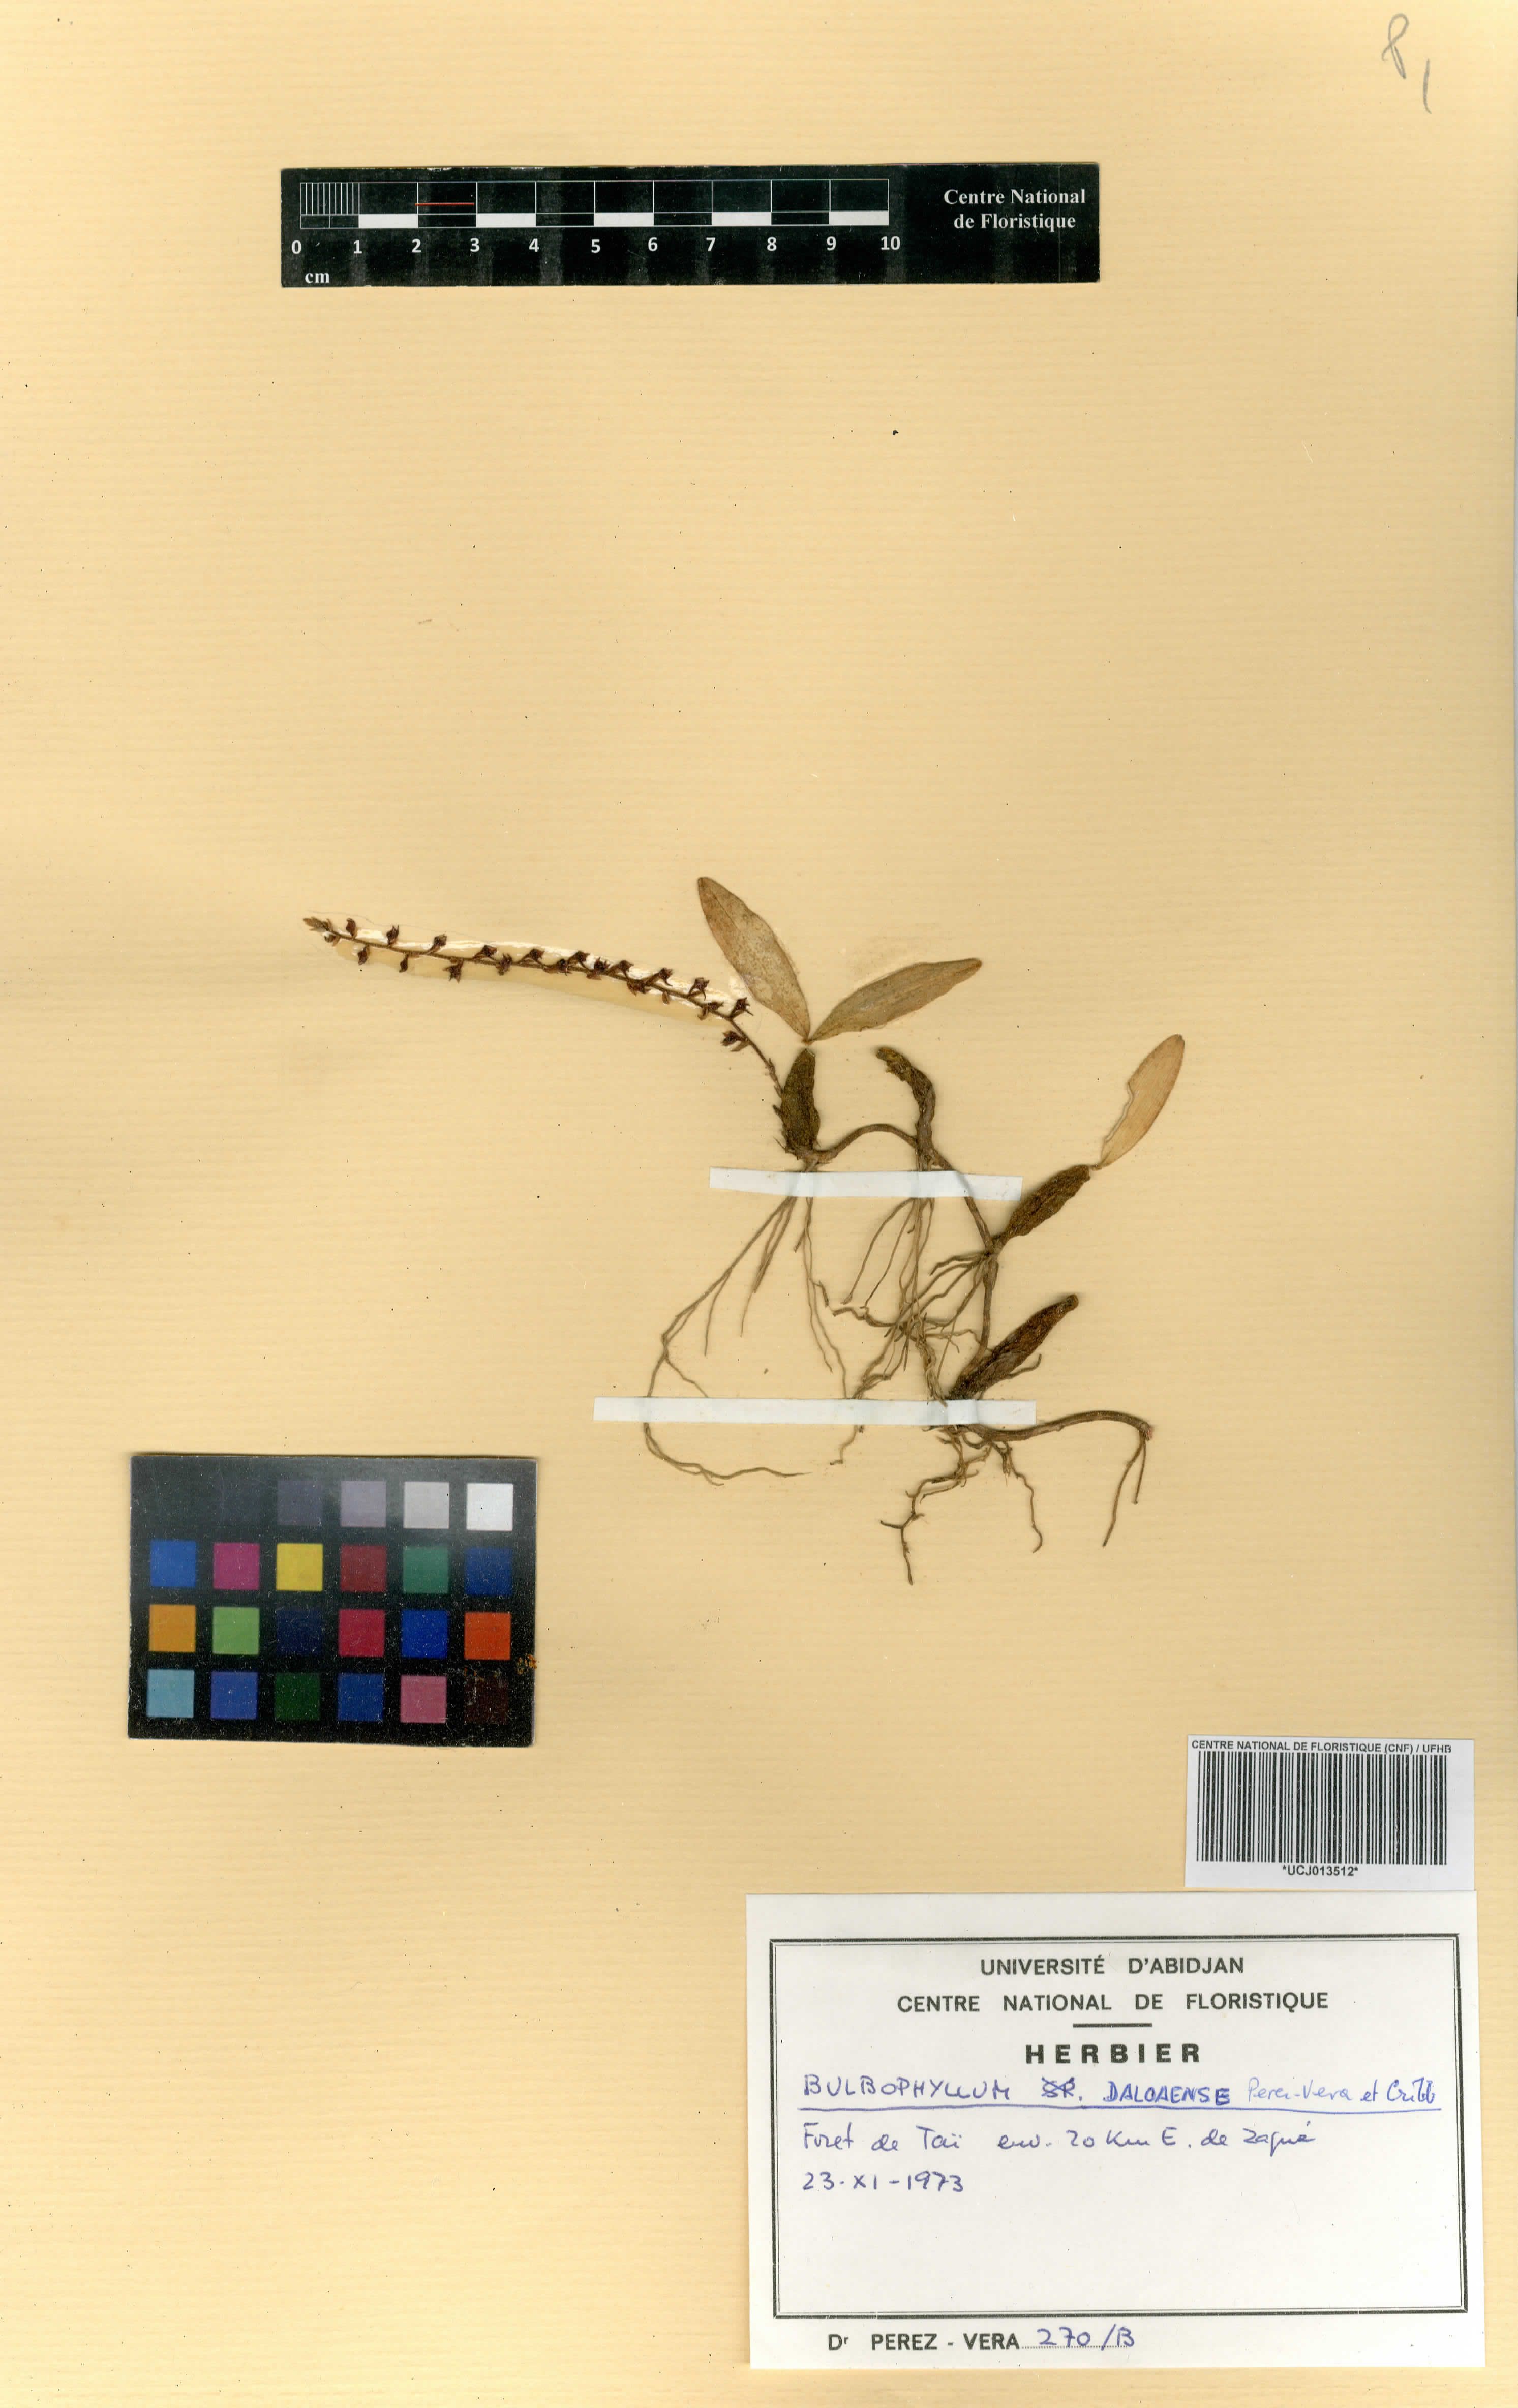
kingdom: Plantae
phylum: Tracheophyta
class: Liliopsida
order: Asparagales
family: Orchidaceae
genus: Bulbophyllum
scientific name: Bulbophyllum resupinatum
